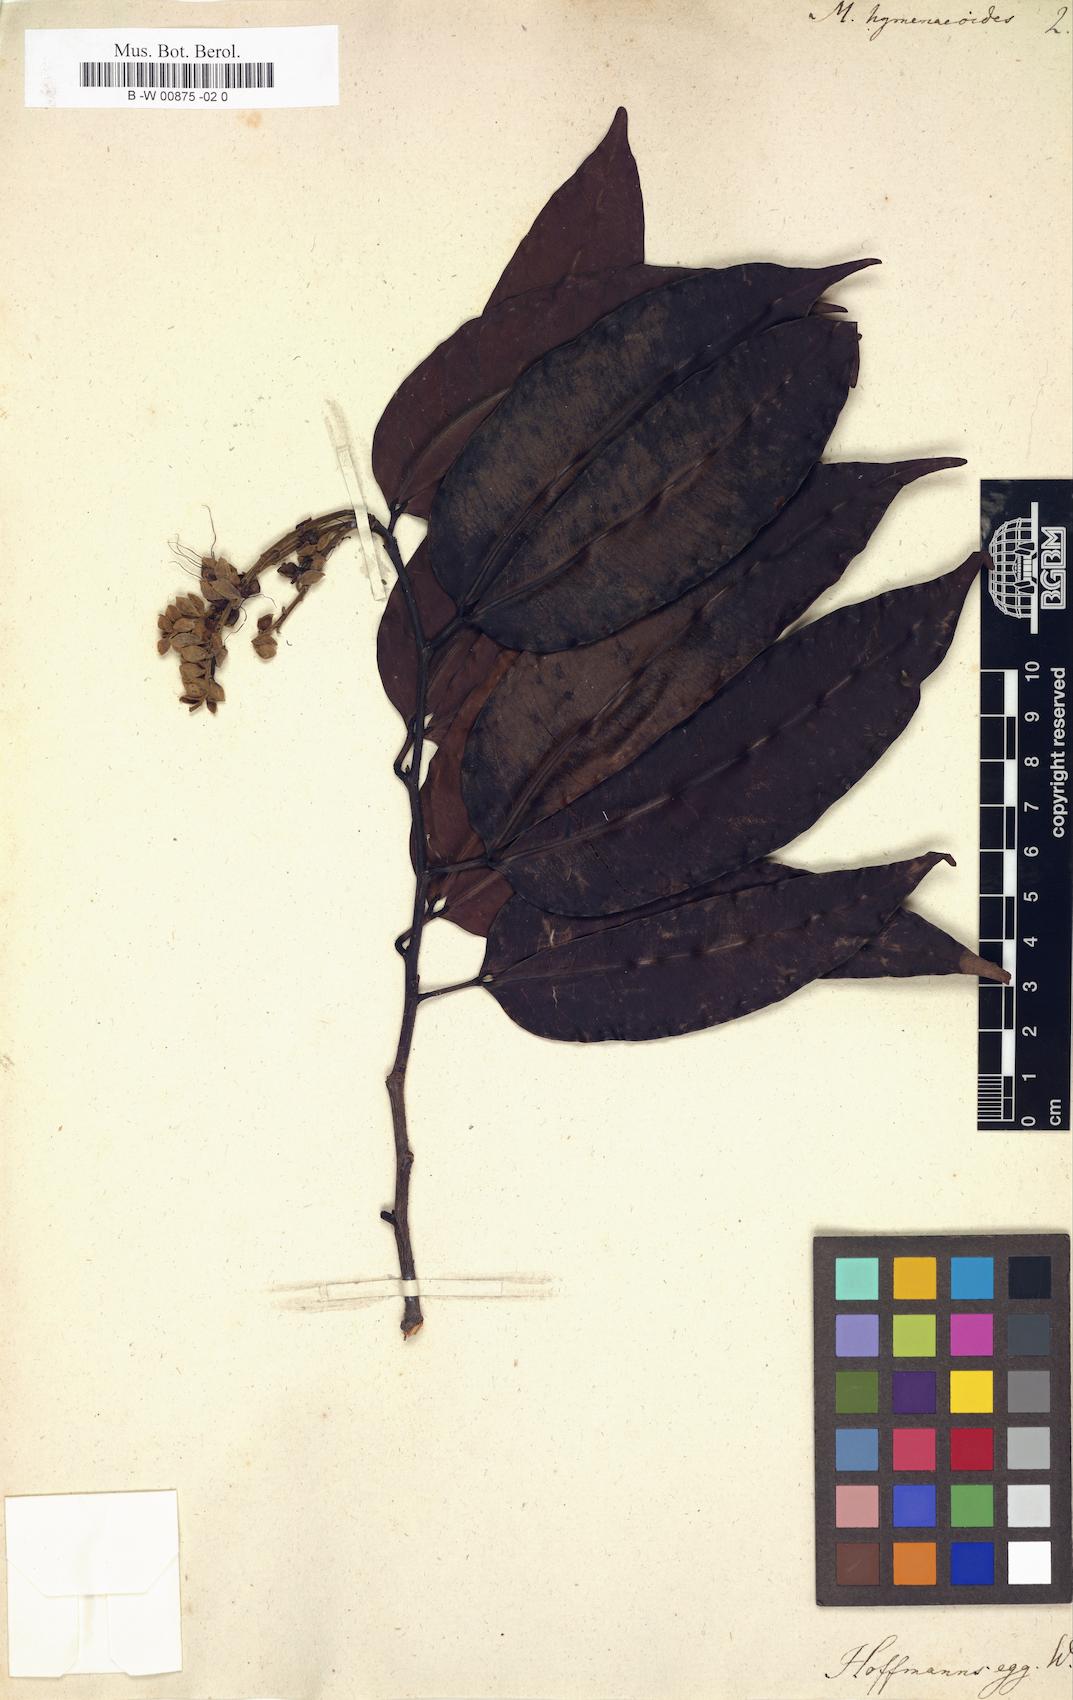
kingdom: Plantae
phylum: Tracheophyta
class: Magnoliopsida
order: Fabales
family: Fabaceae
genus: Macrolobium
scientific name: Macrolobium bifolium
